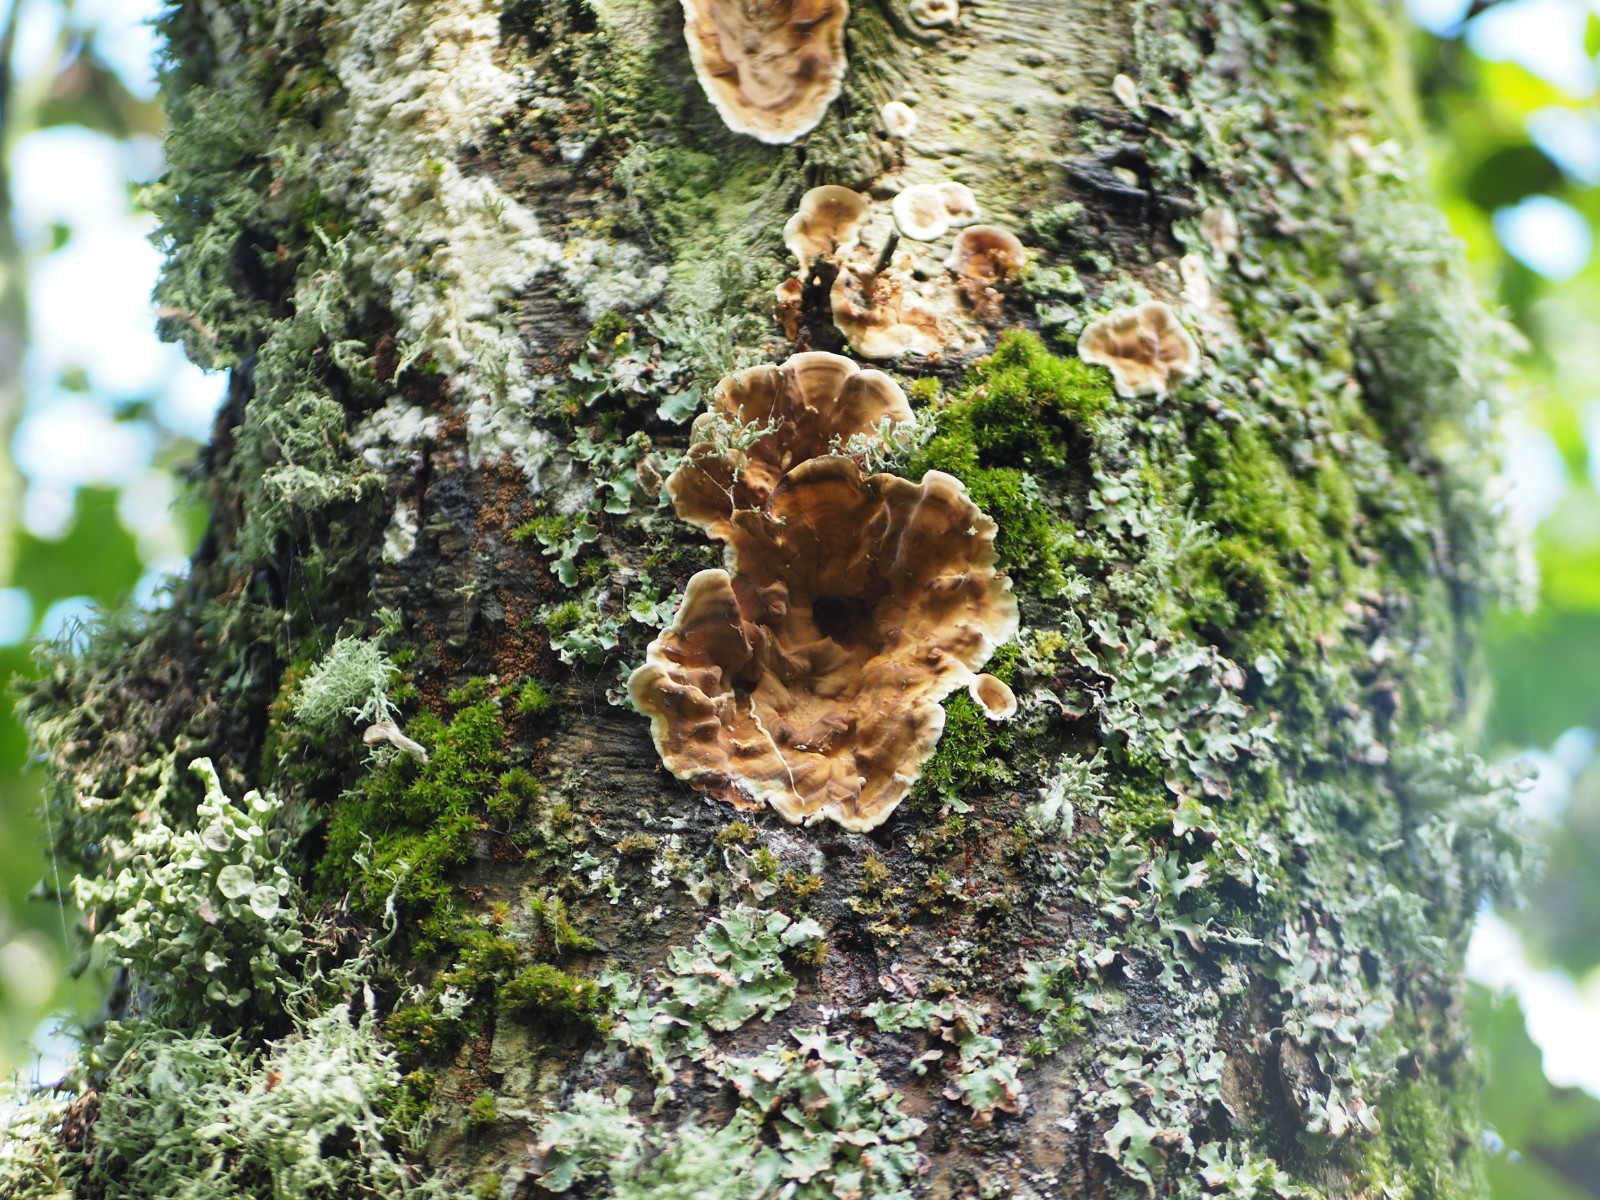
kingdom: Fungi
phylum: Basidiomycota
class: Agaricomycetes
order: Russulales
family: Stereaceae
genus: Stereum
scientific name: Stereum hirsutum
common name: håret lædersvamp
